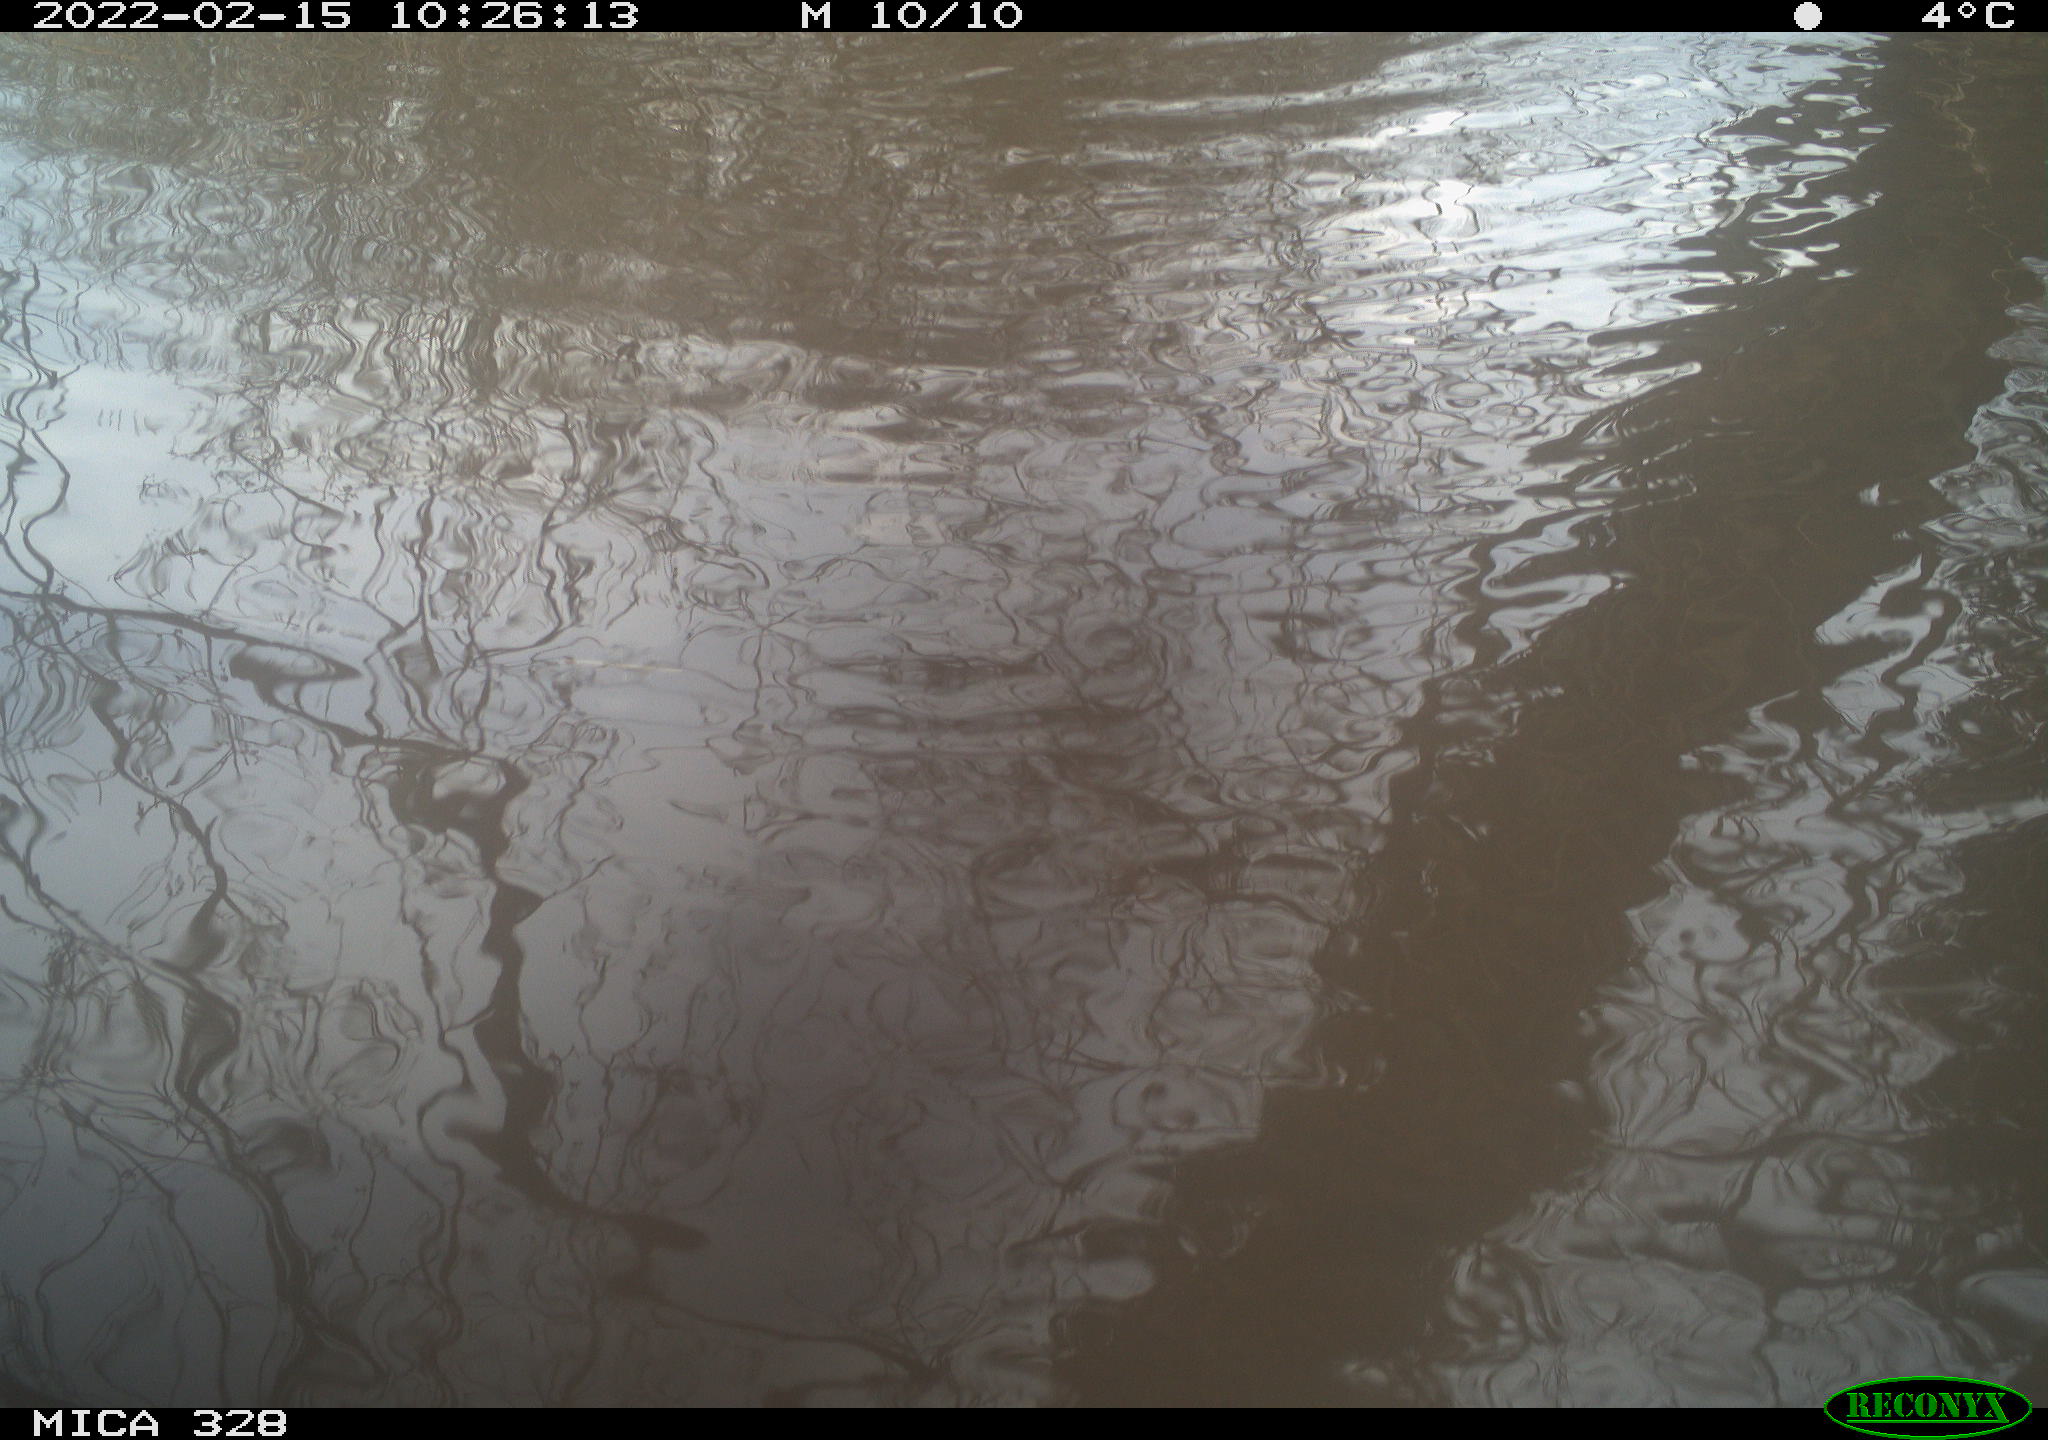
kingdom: Animalia
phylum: Chordata
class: Mammalia
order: Rodentia
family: Cricetidae
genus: Ondatra
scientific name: Ondatra zibethicus
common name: Muskrat
